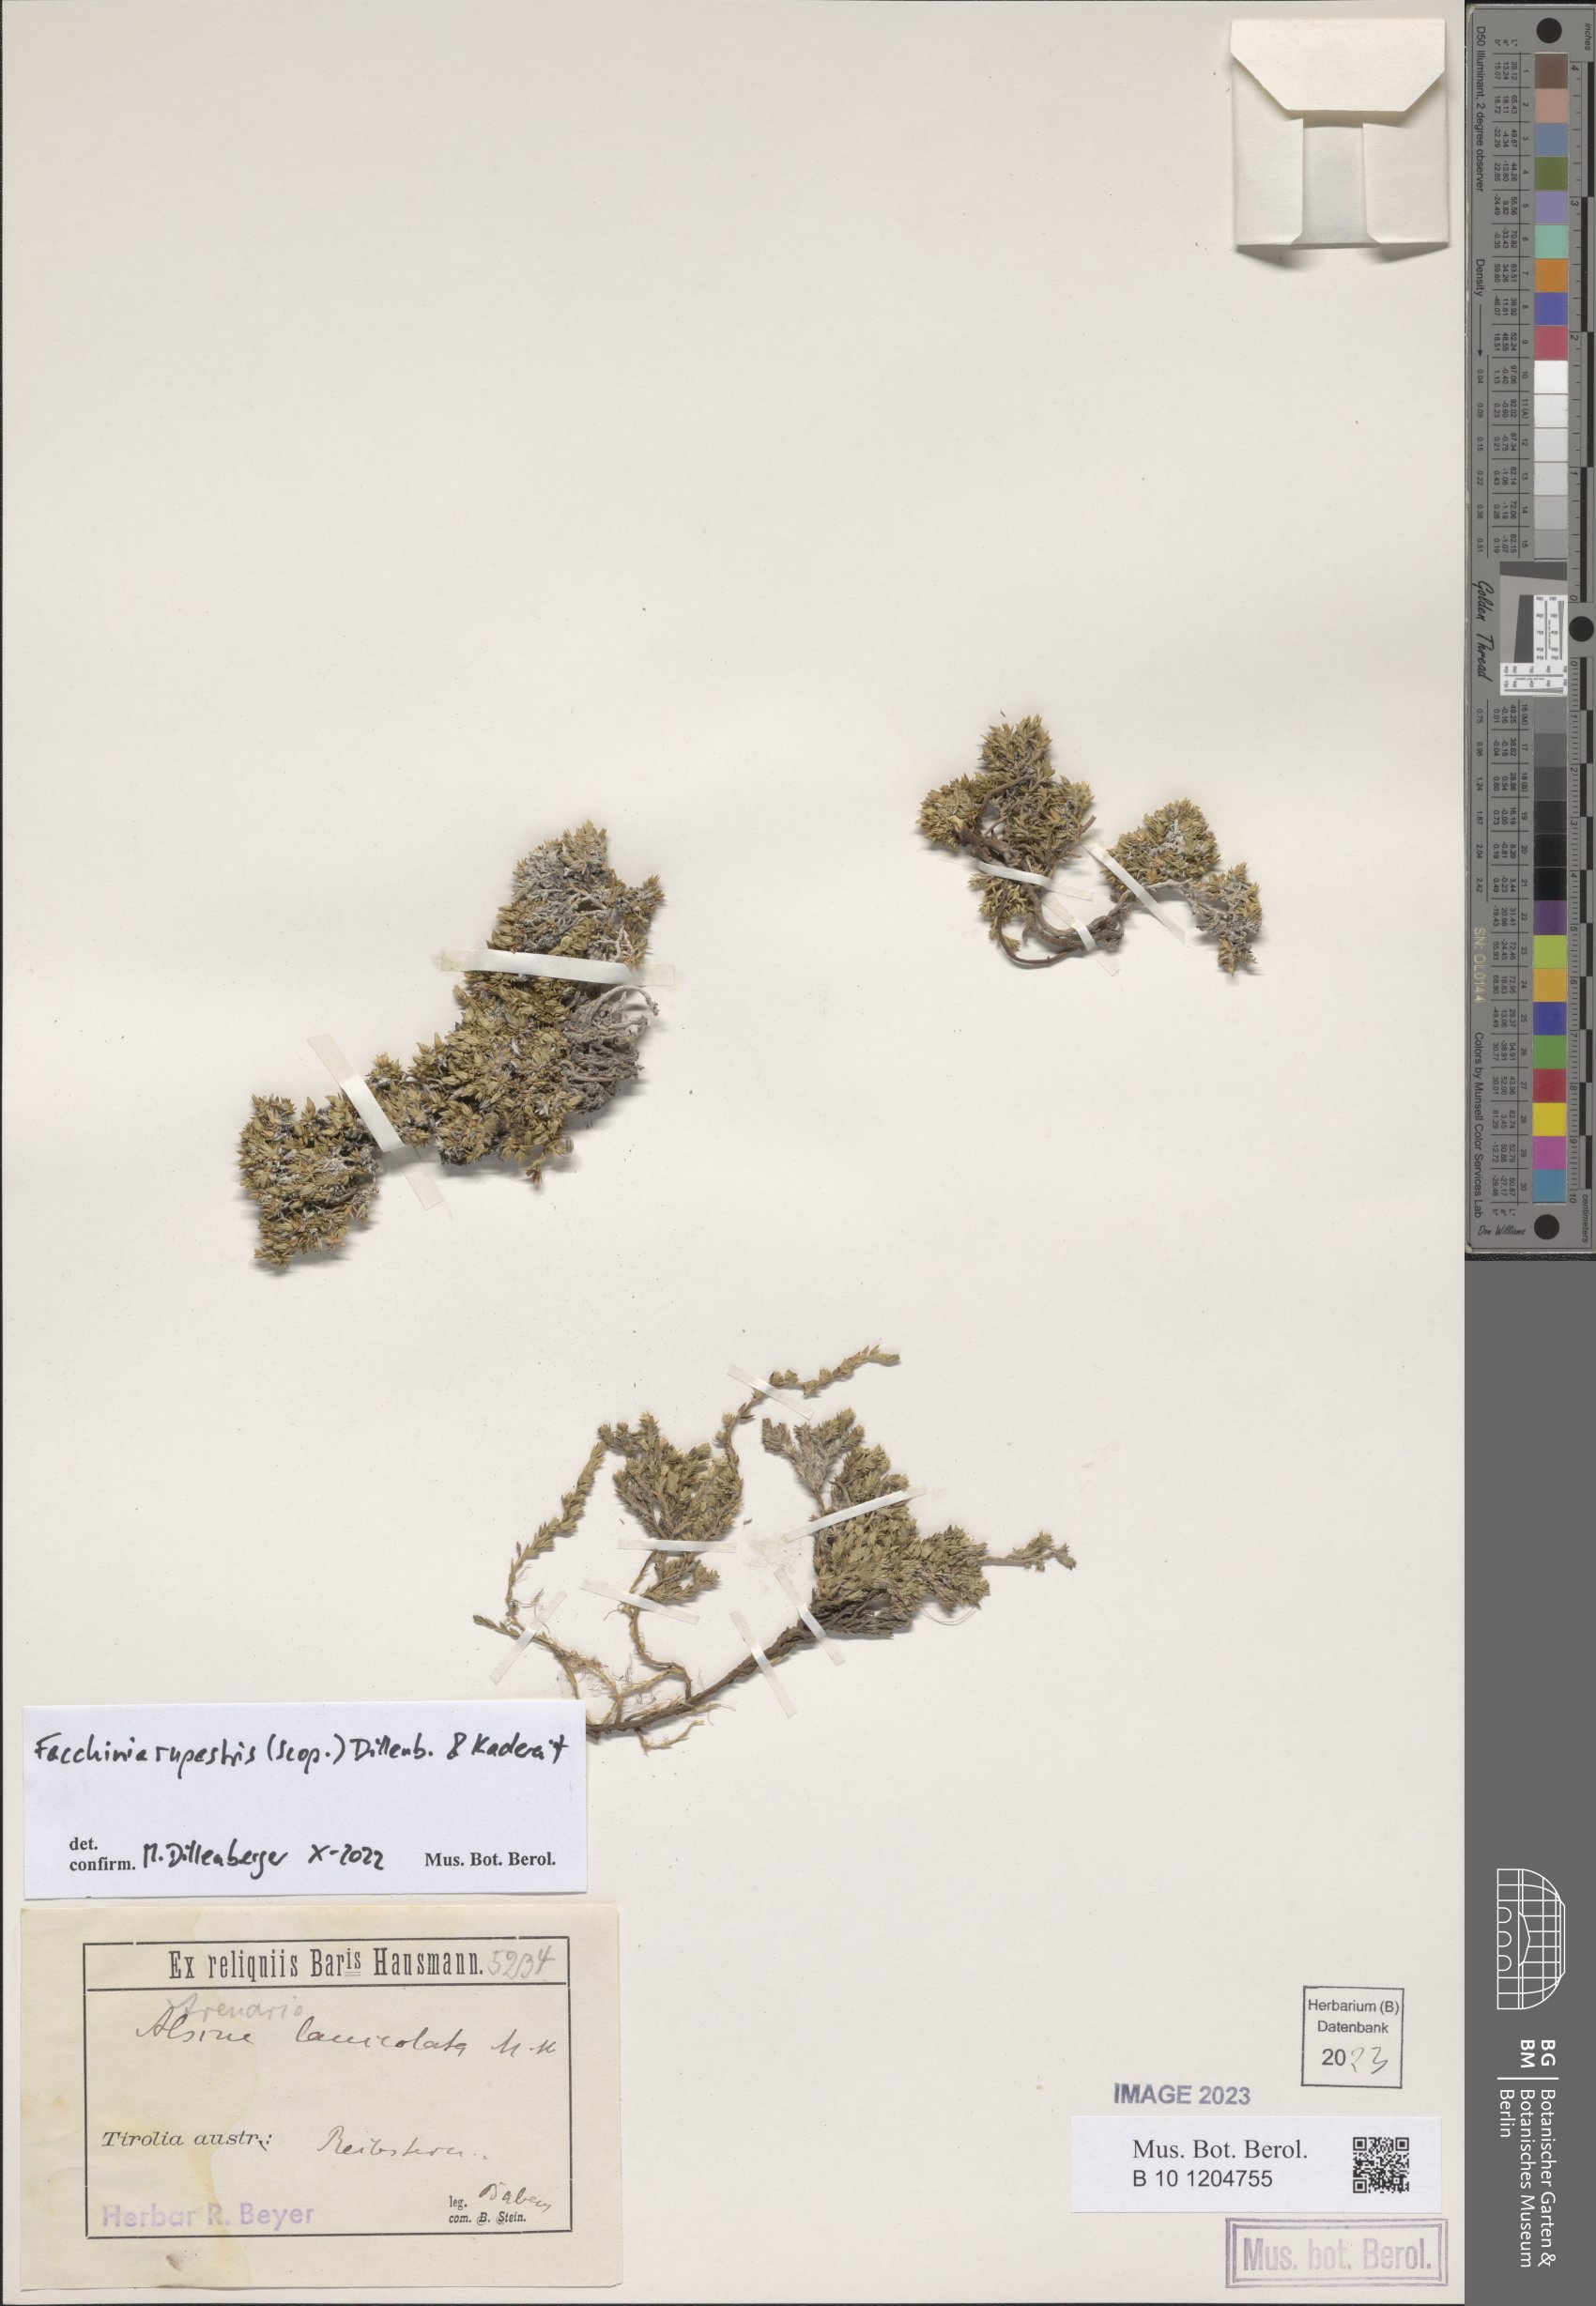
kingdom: Plantae
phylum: Tracheophyta
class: Magnoliopsida
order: Caryophyllales
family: Caryophyllaceae
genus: Facchinia
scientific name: Facchinia rupestris
